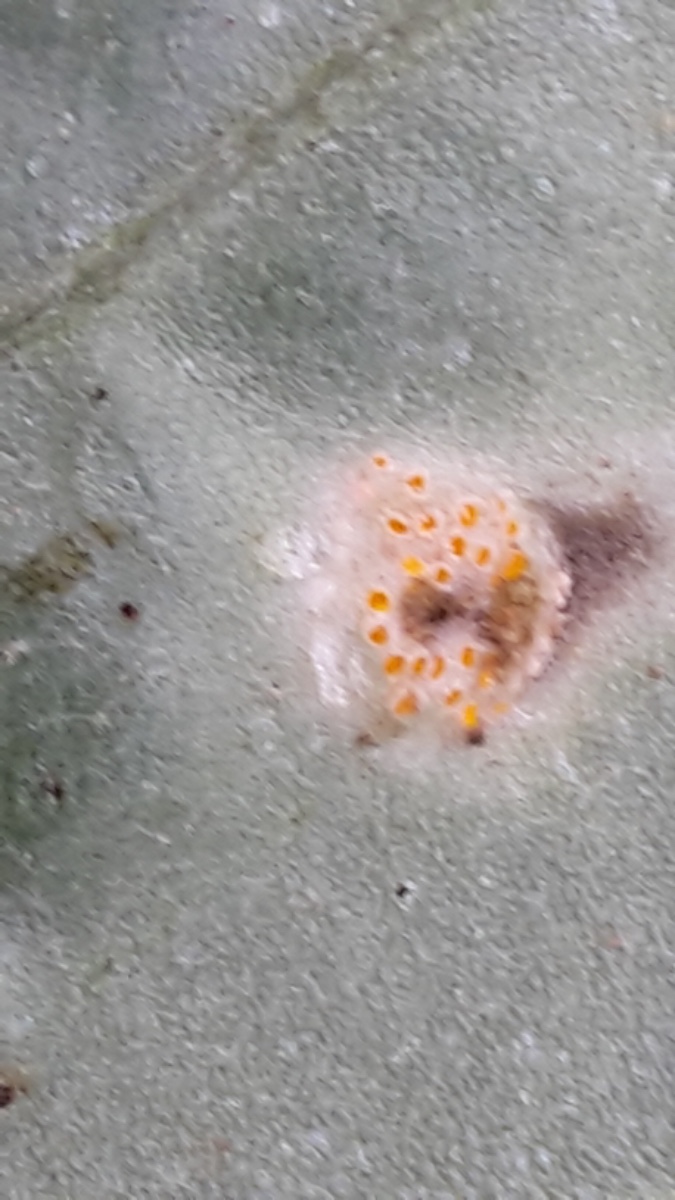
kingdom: Fungi
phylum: Basidiomycota
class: Pucciniomycetes
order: Pucciniales
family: Pucciniaceae
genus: Puccinia
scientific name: Puccinia poarum
